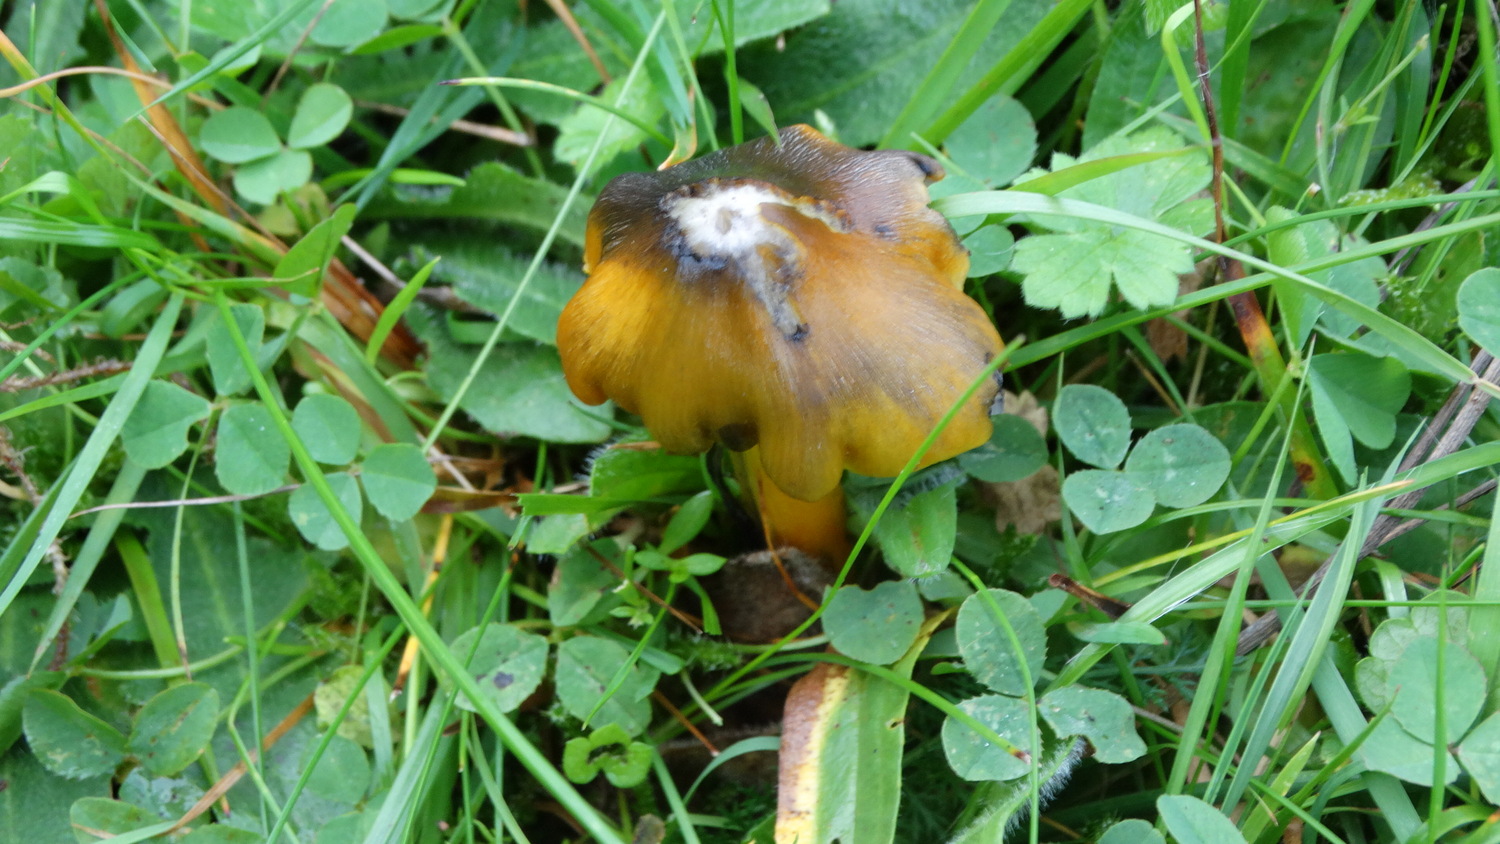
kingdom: Fungi
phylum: Basidiomycota
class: Agaricomycetes
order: Agaricales
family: Hygrophoraceae
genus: Hygrocybe
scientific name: Hygrocybe conica
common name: kegle-vokshat
